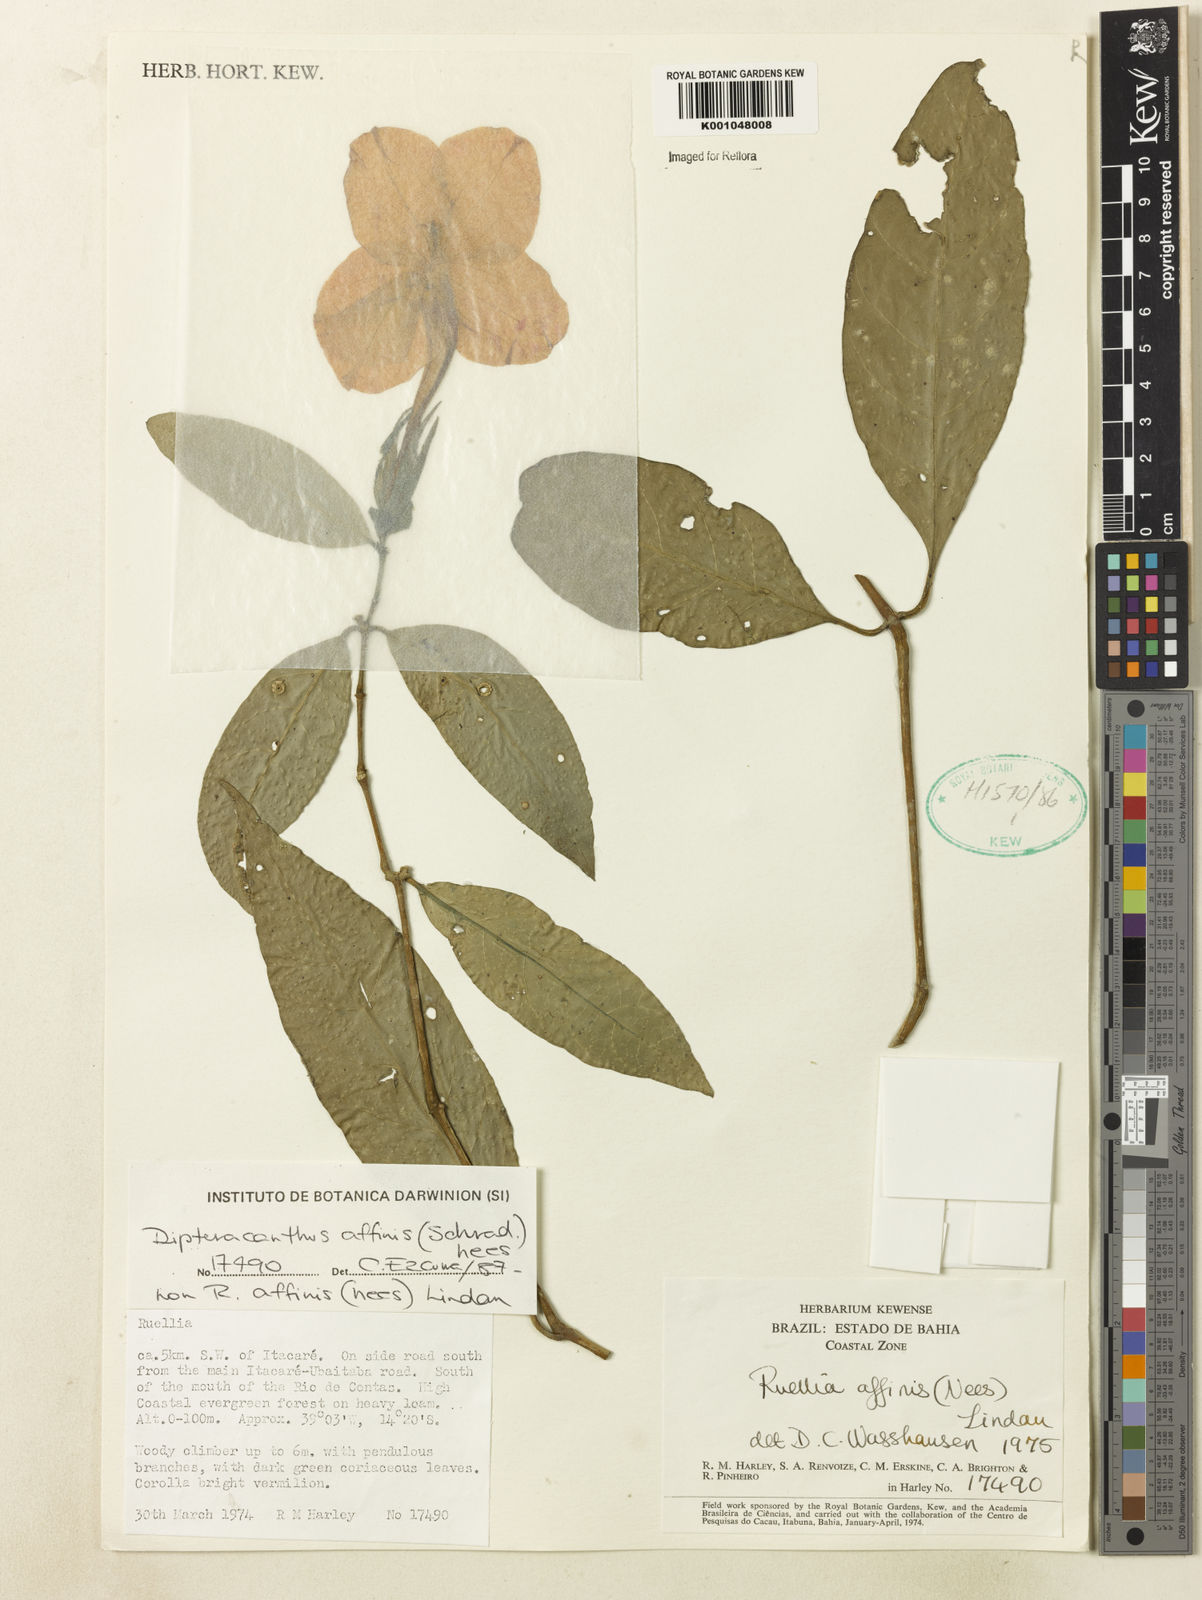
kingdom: Plantae
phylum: Tracheophyta
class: Magnoliopsida
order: Lamiales
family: Acanthaceae
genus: Ruellia
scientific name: Ruellia adenocalyx
